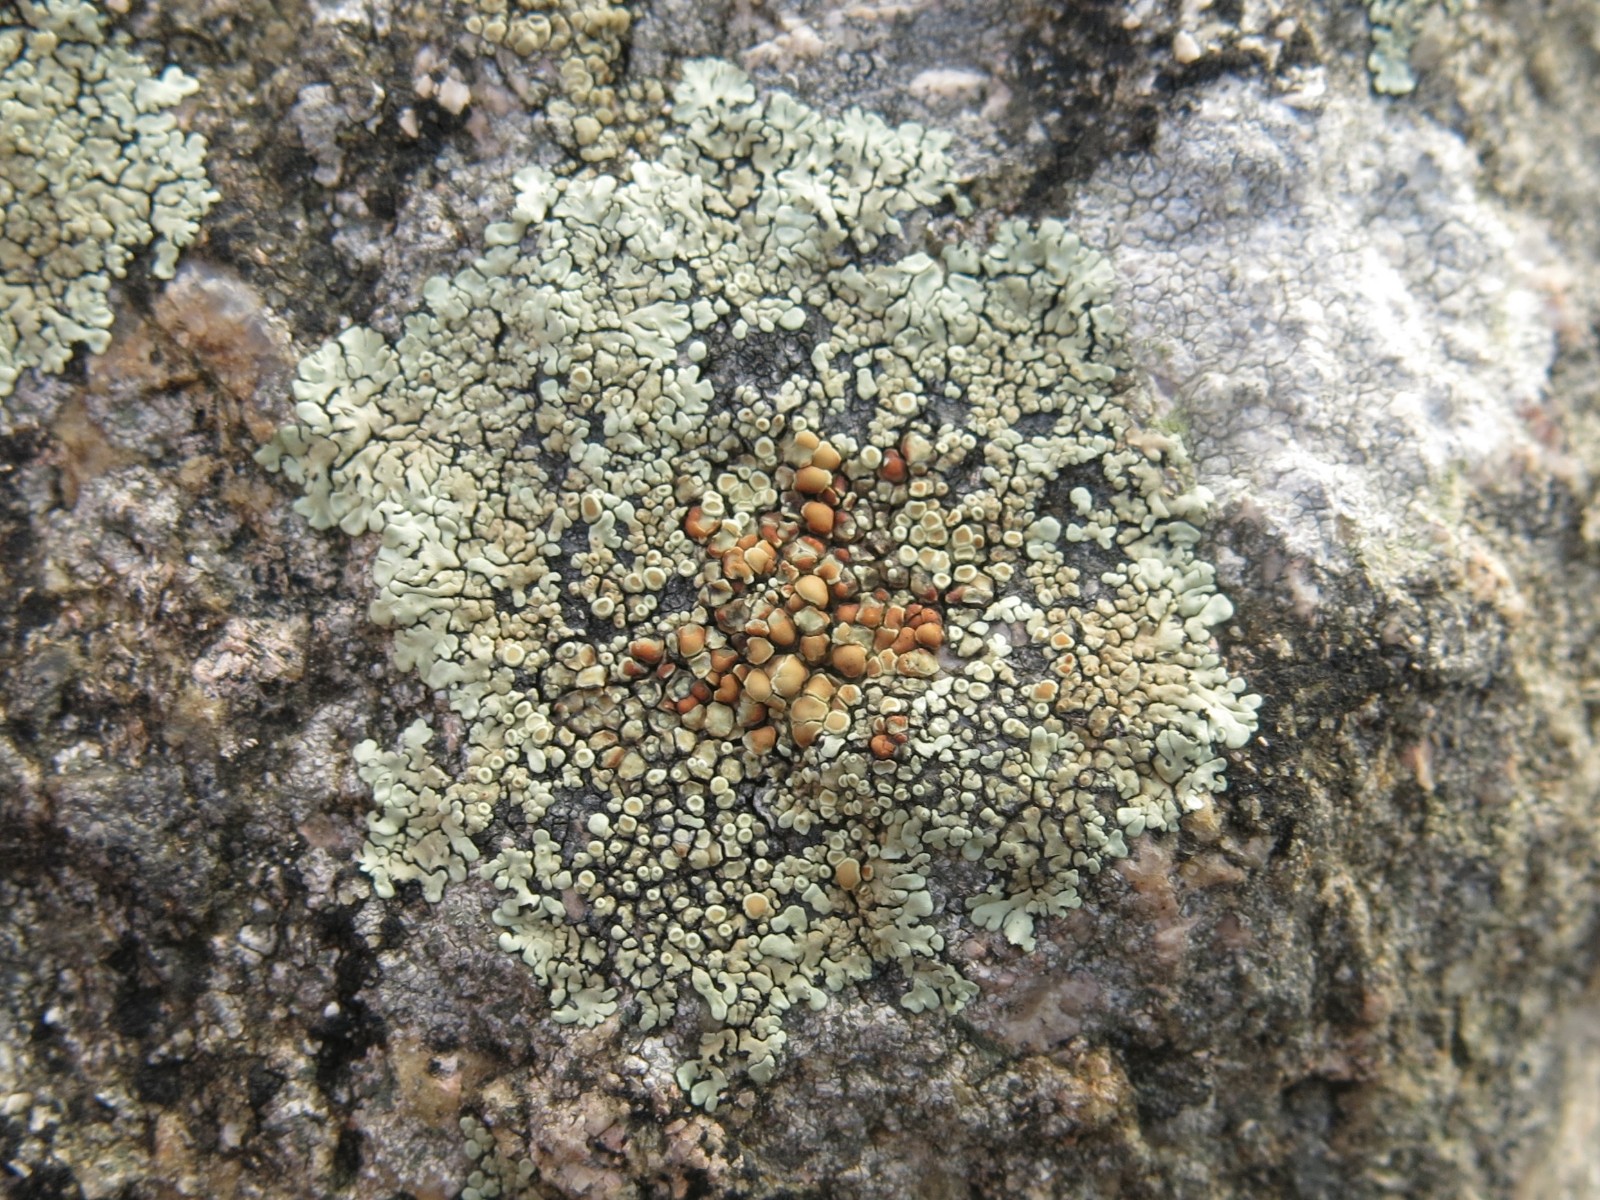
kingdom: Fungi
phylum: Ascomycota
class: Lecanoromycetes
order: Lecanorales
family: Lecanoraceae
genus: Protoparmeliopsis
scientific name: Protoparmeliopsis muralis
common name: randfliget kantskivelav
